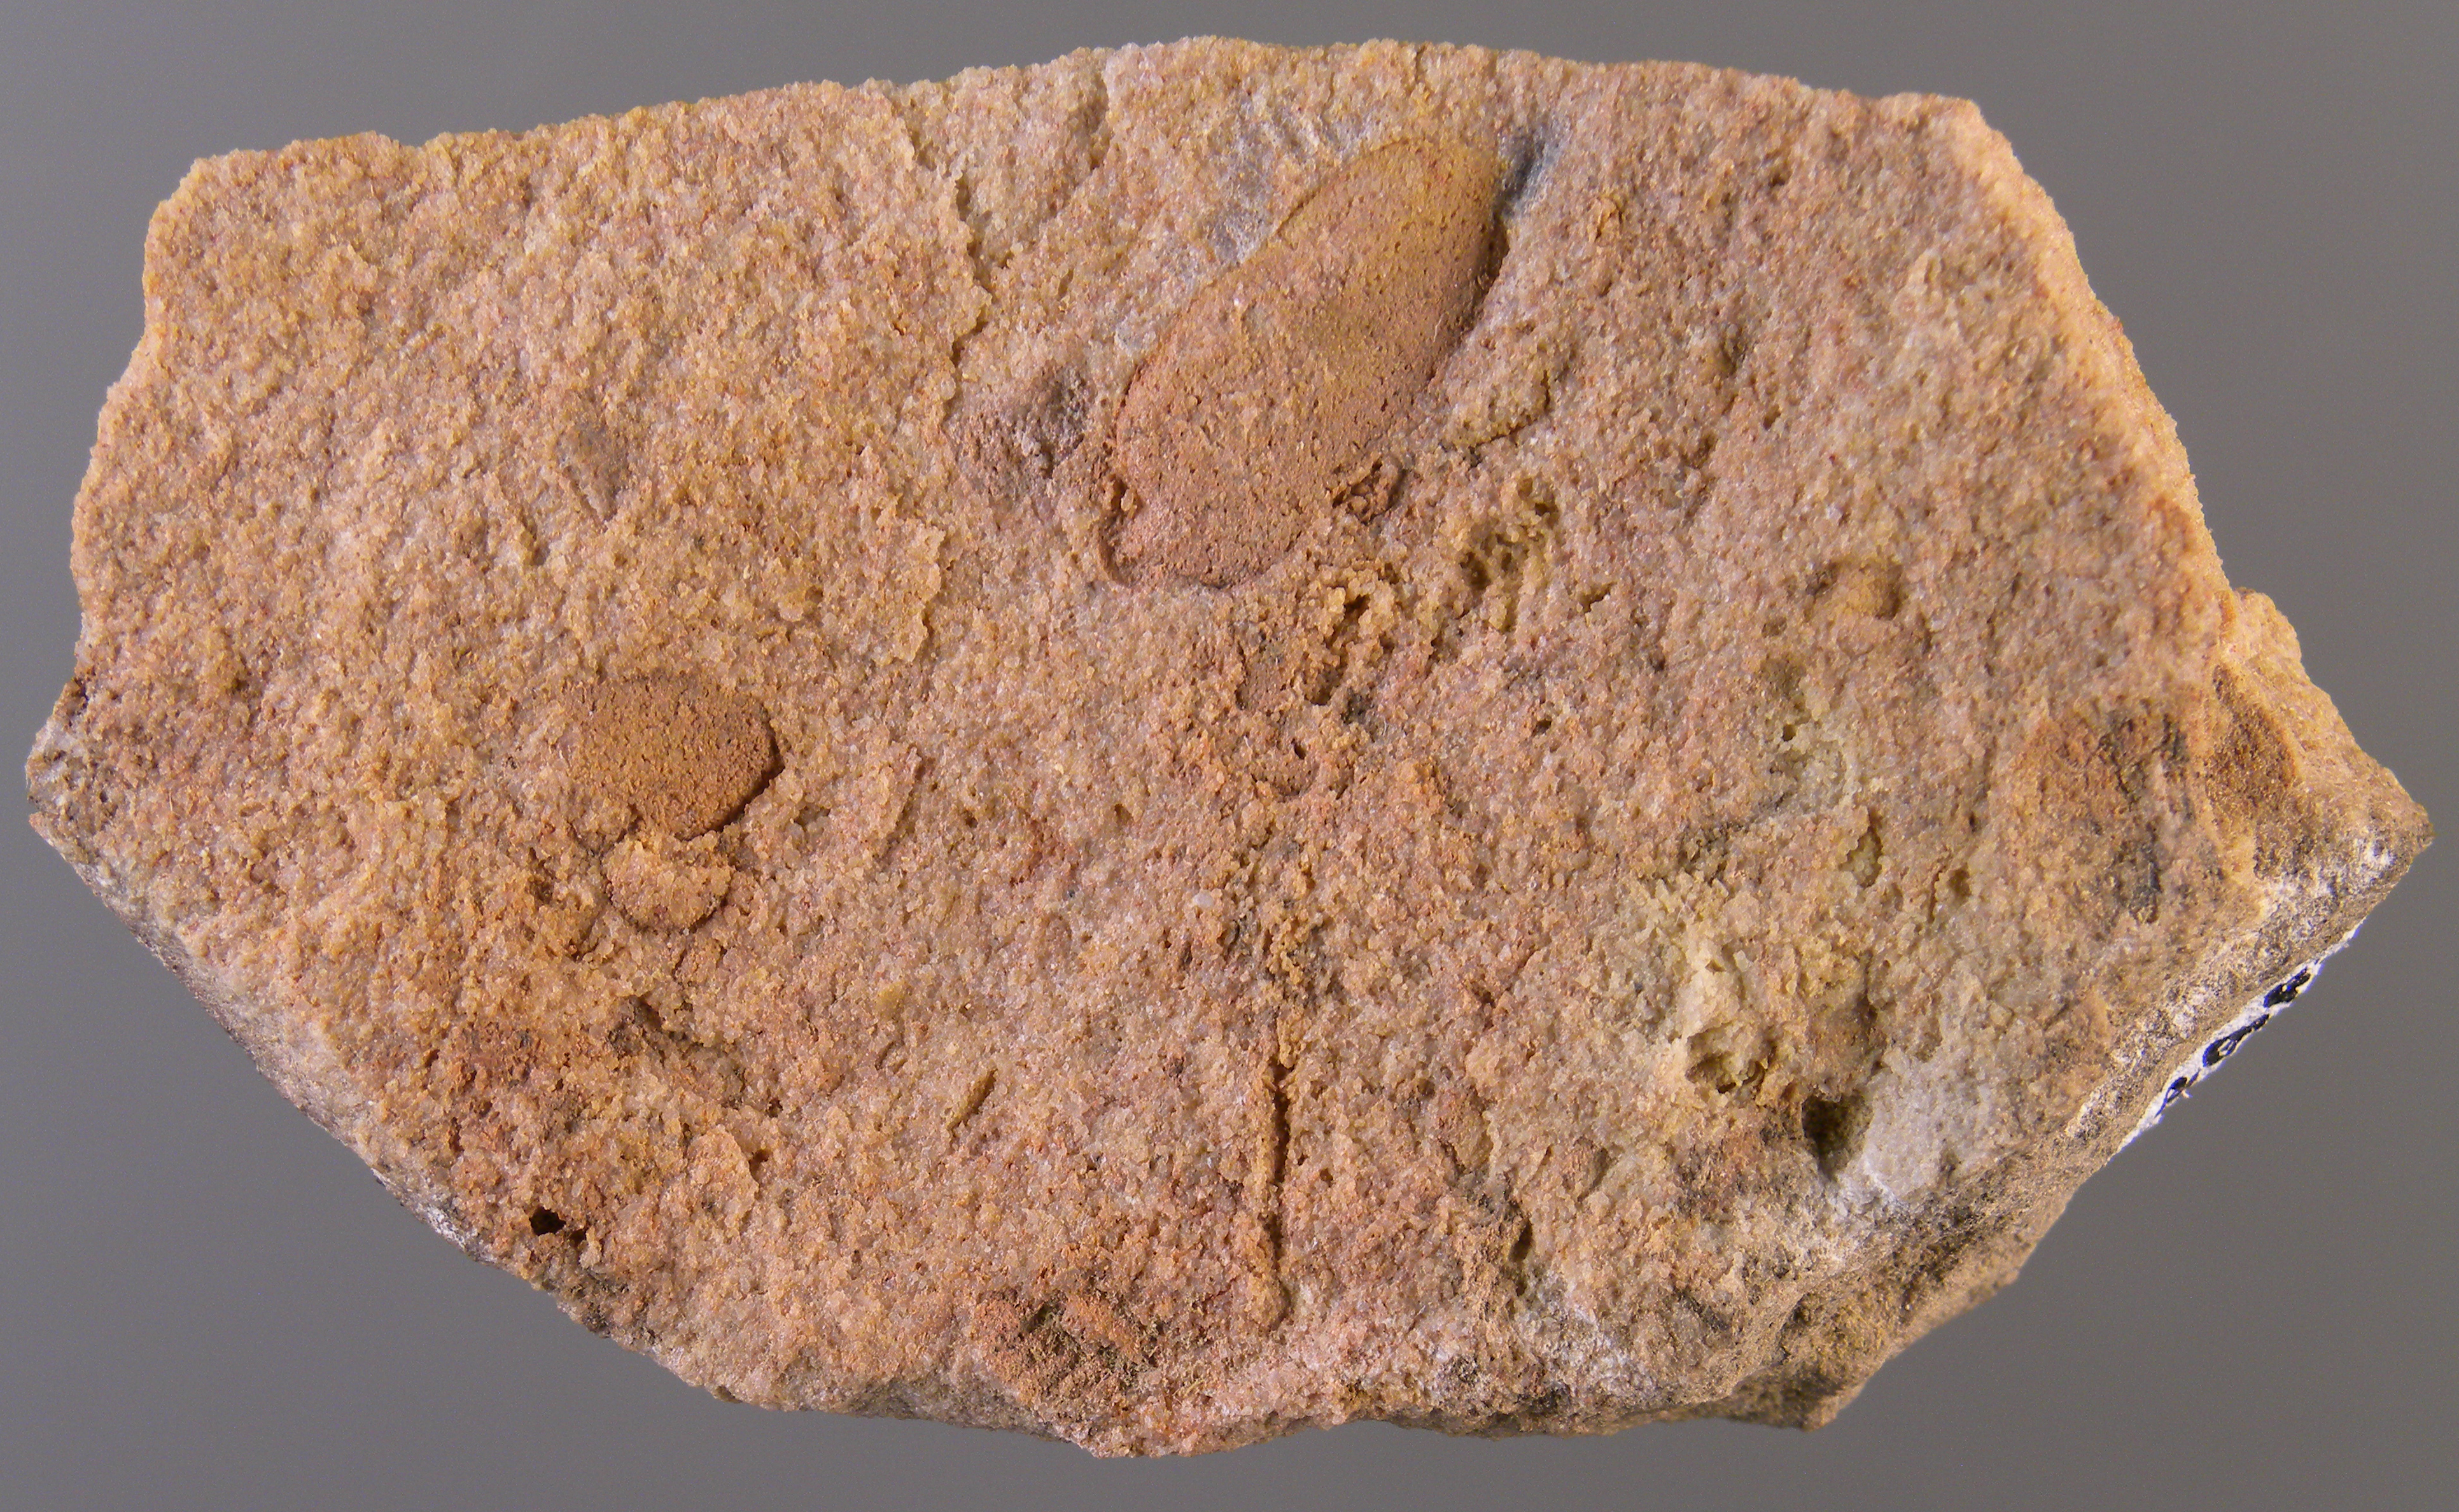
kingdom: Animalia
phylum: Mollusca
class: Bivalvia
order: Modiomorphida
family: Modiomorphidae
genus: Modiomorpha
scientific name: Modiomorpha
